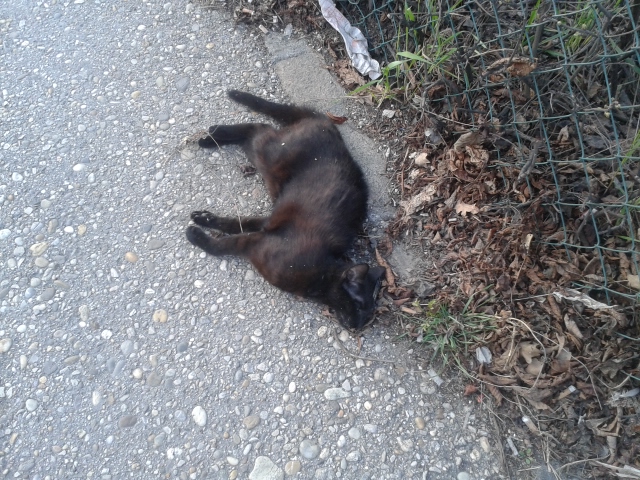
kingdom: Animalia
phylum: Chordata
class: Mammalia
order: Carnivora
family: Felidae
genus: Felis
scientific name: Felis catus
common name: Domestic cat
